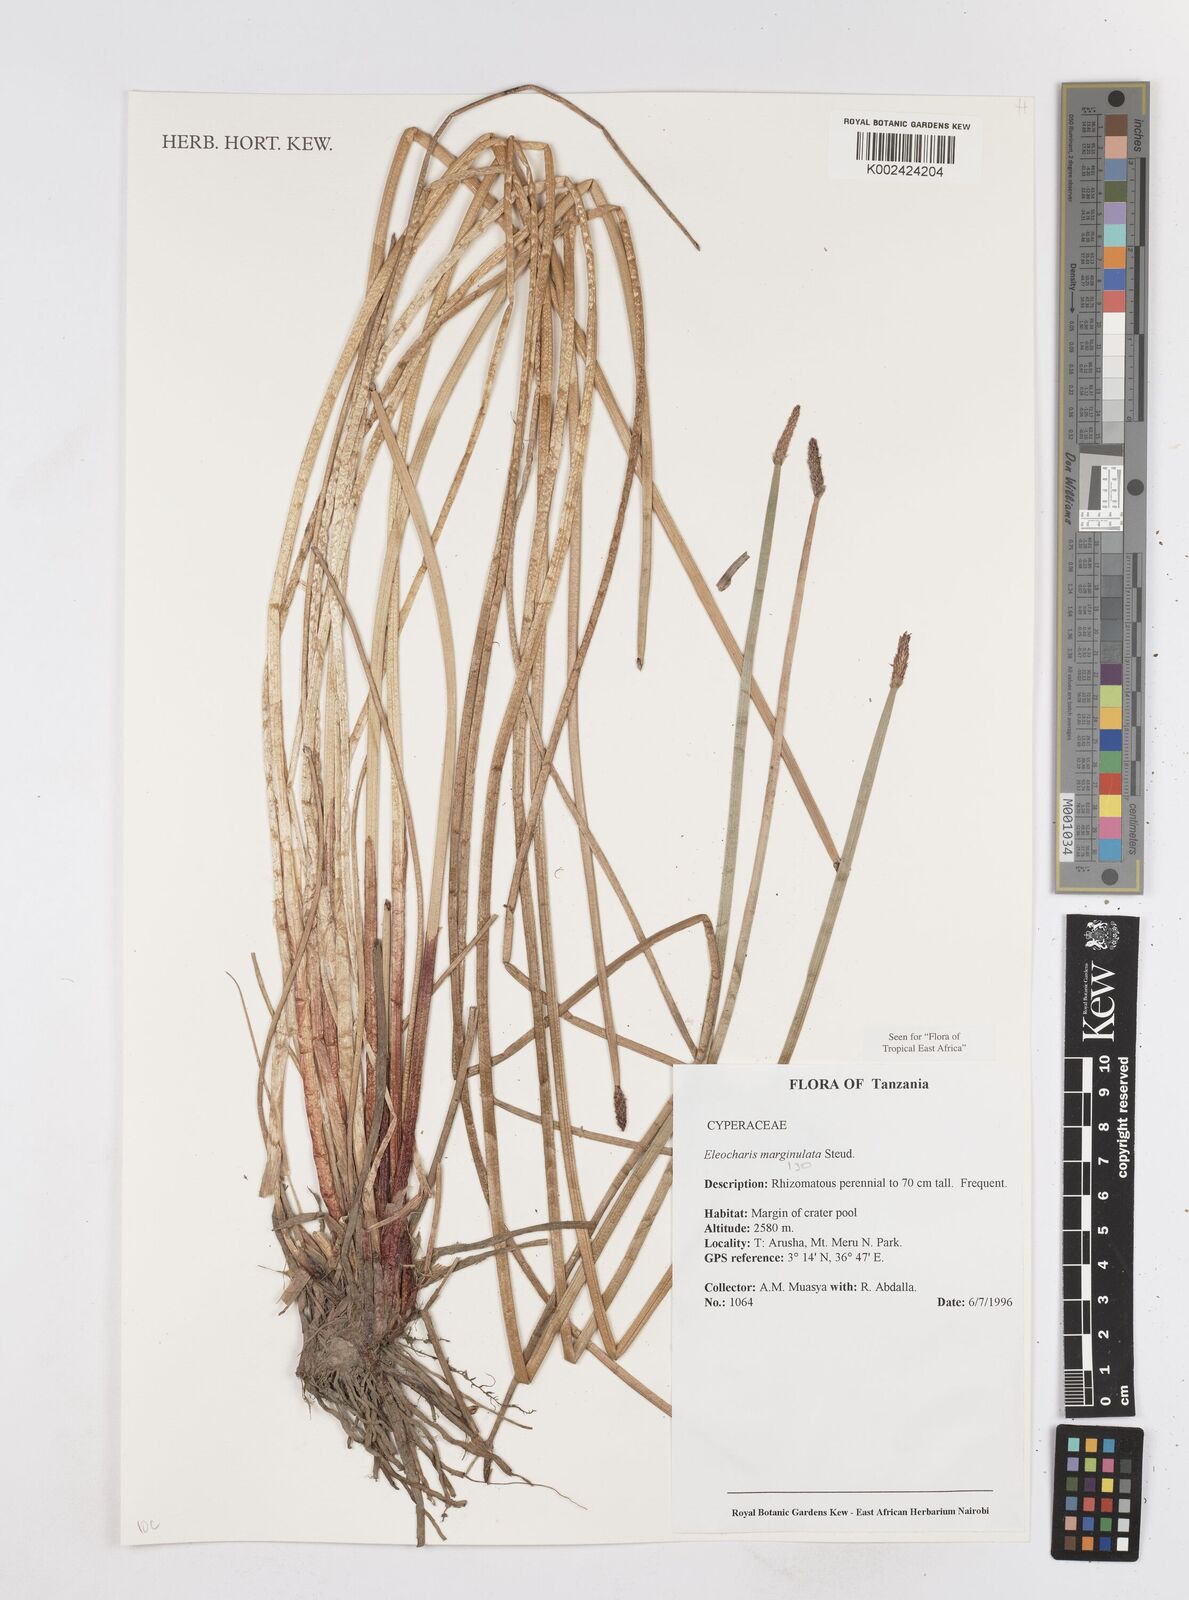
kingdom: Plantae
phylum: Tracheophyta
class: Liliopsida
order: Poales
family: Cyperaceae
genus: Eleocharis
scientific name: Eleocharis marginulata
